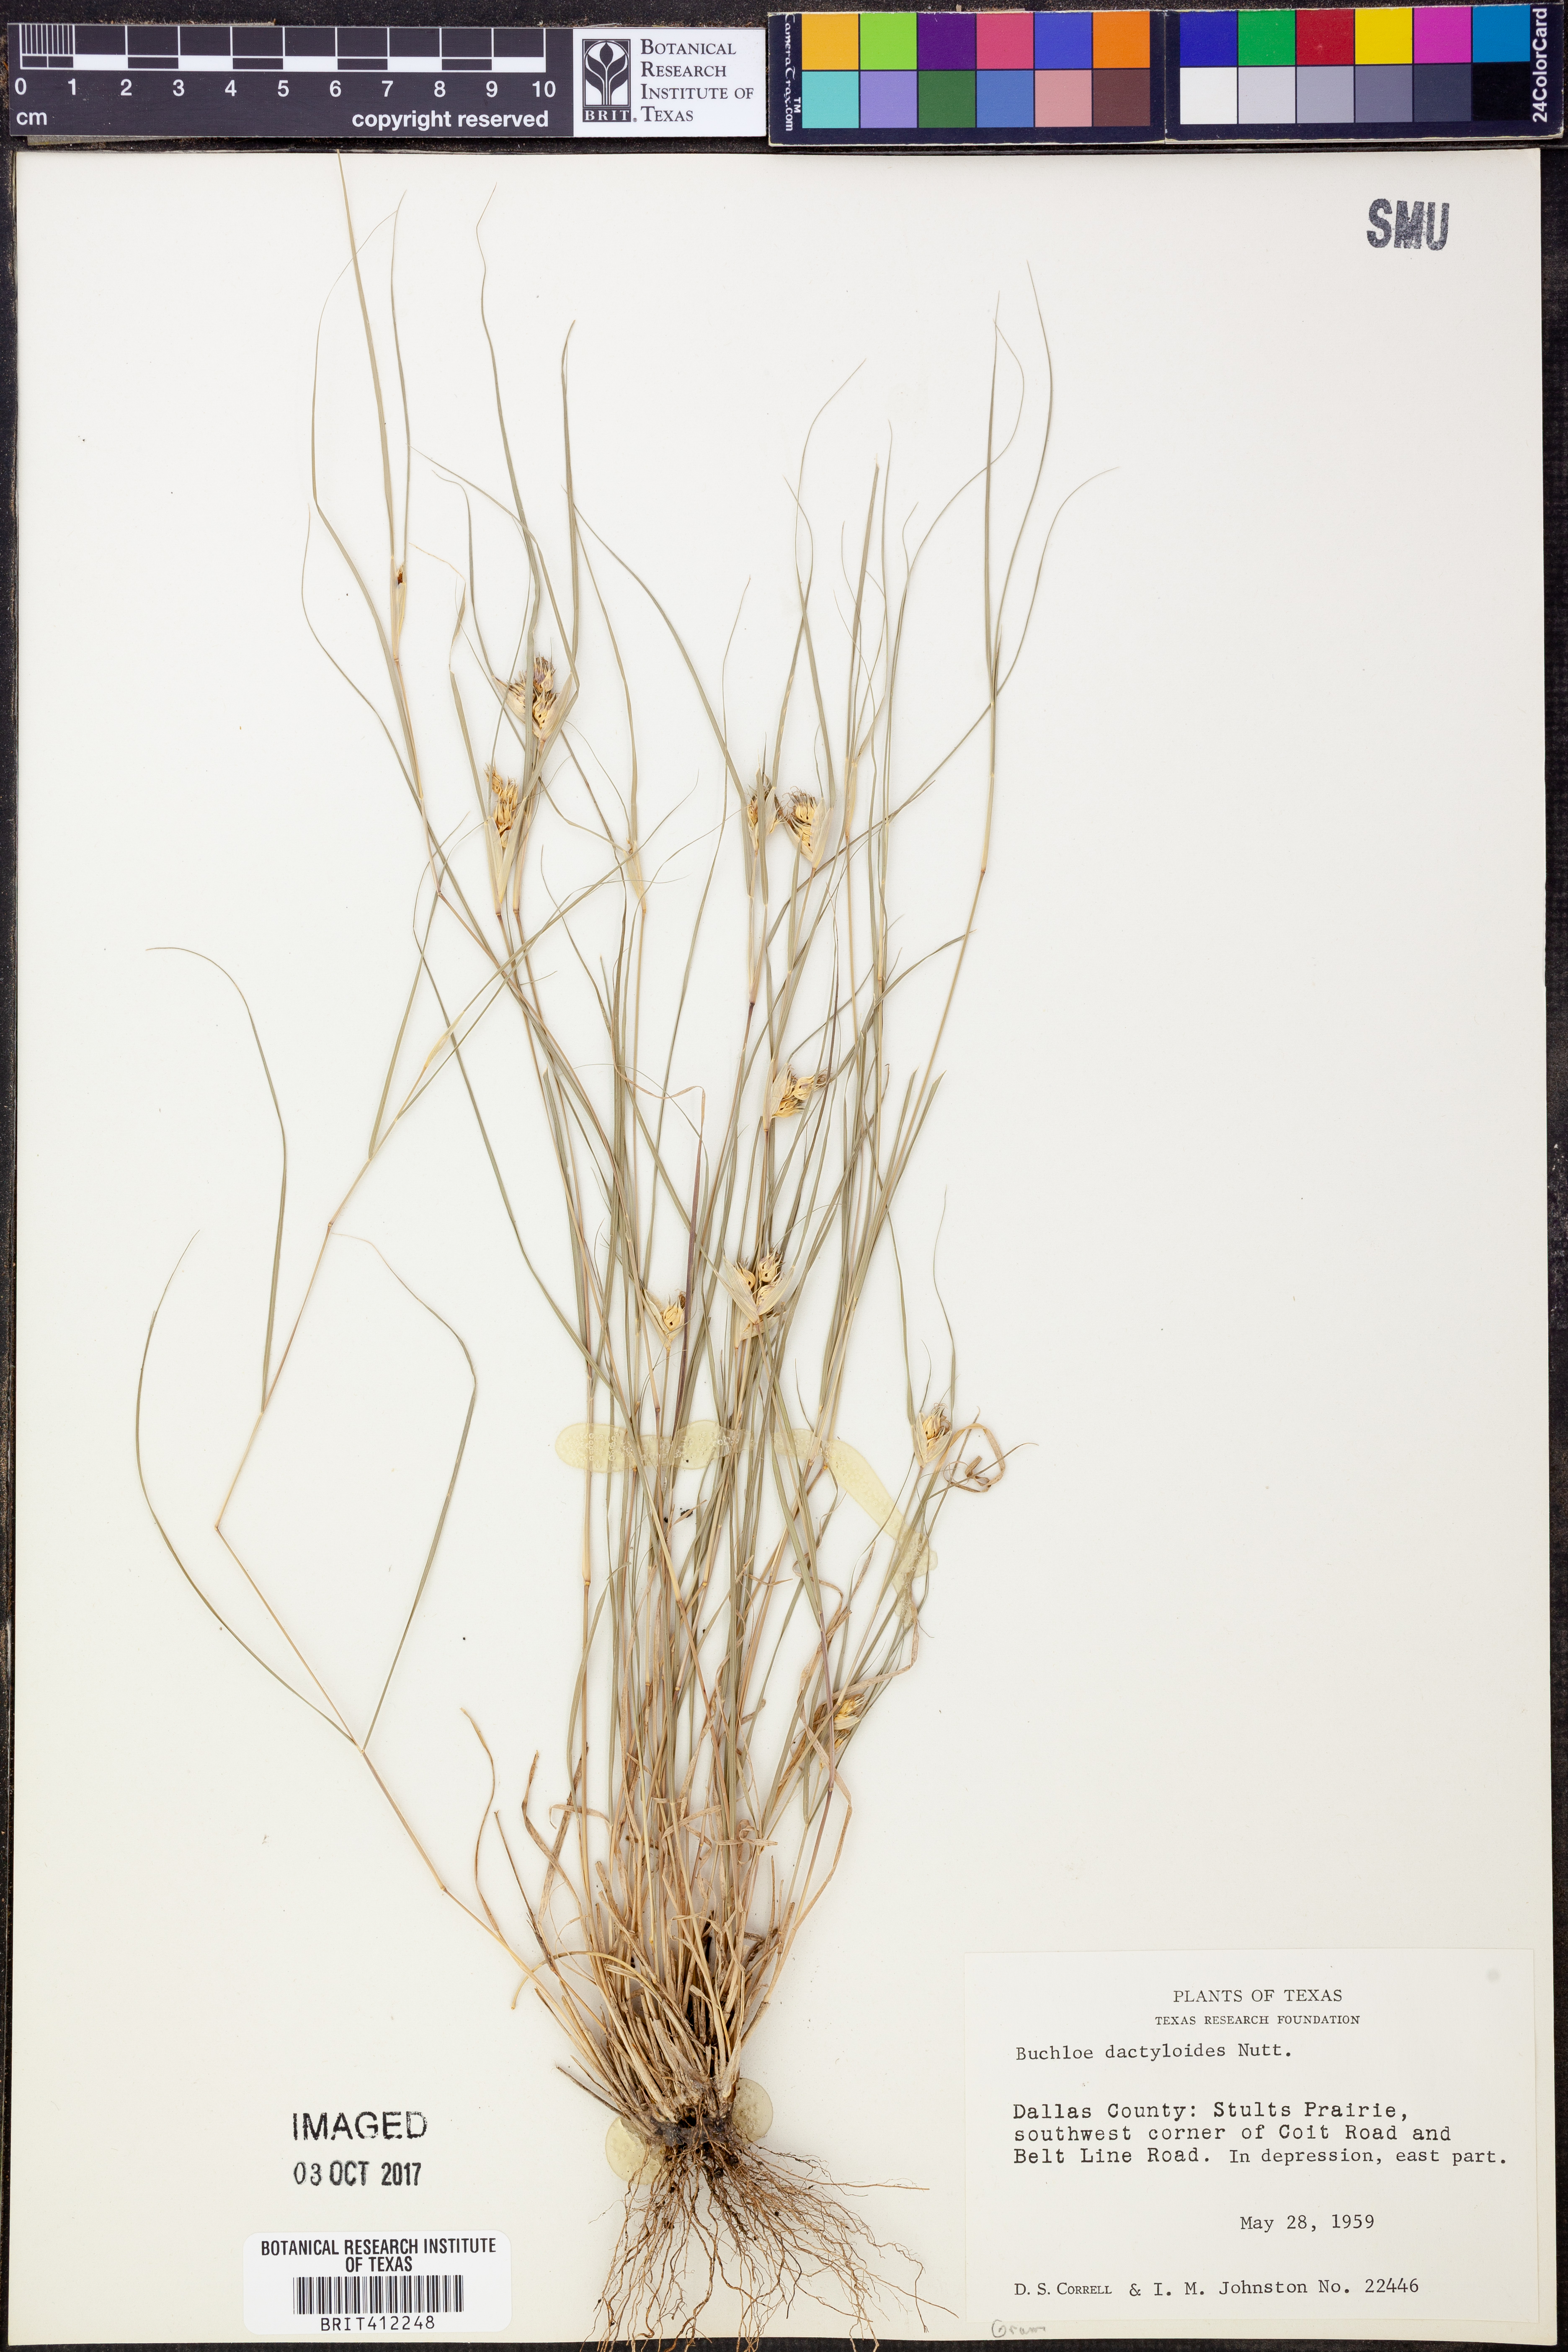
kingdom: Plantae
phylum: Tracheophyta
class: Liliopsida
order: Poales
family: Poaceae
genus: Bouteloua
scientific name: Bouteloua dactyloides
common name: Buffalo grass
